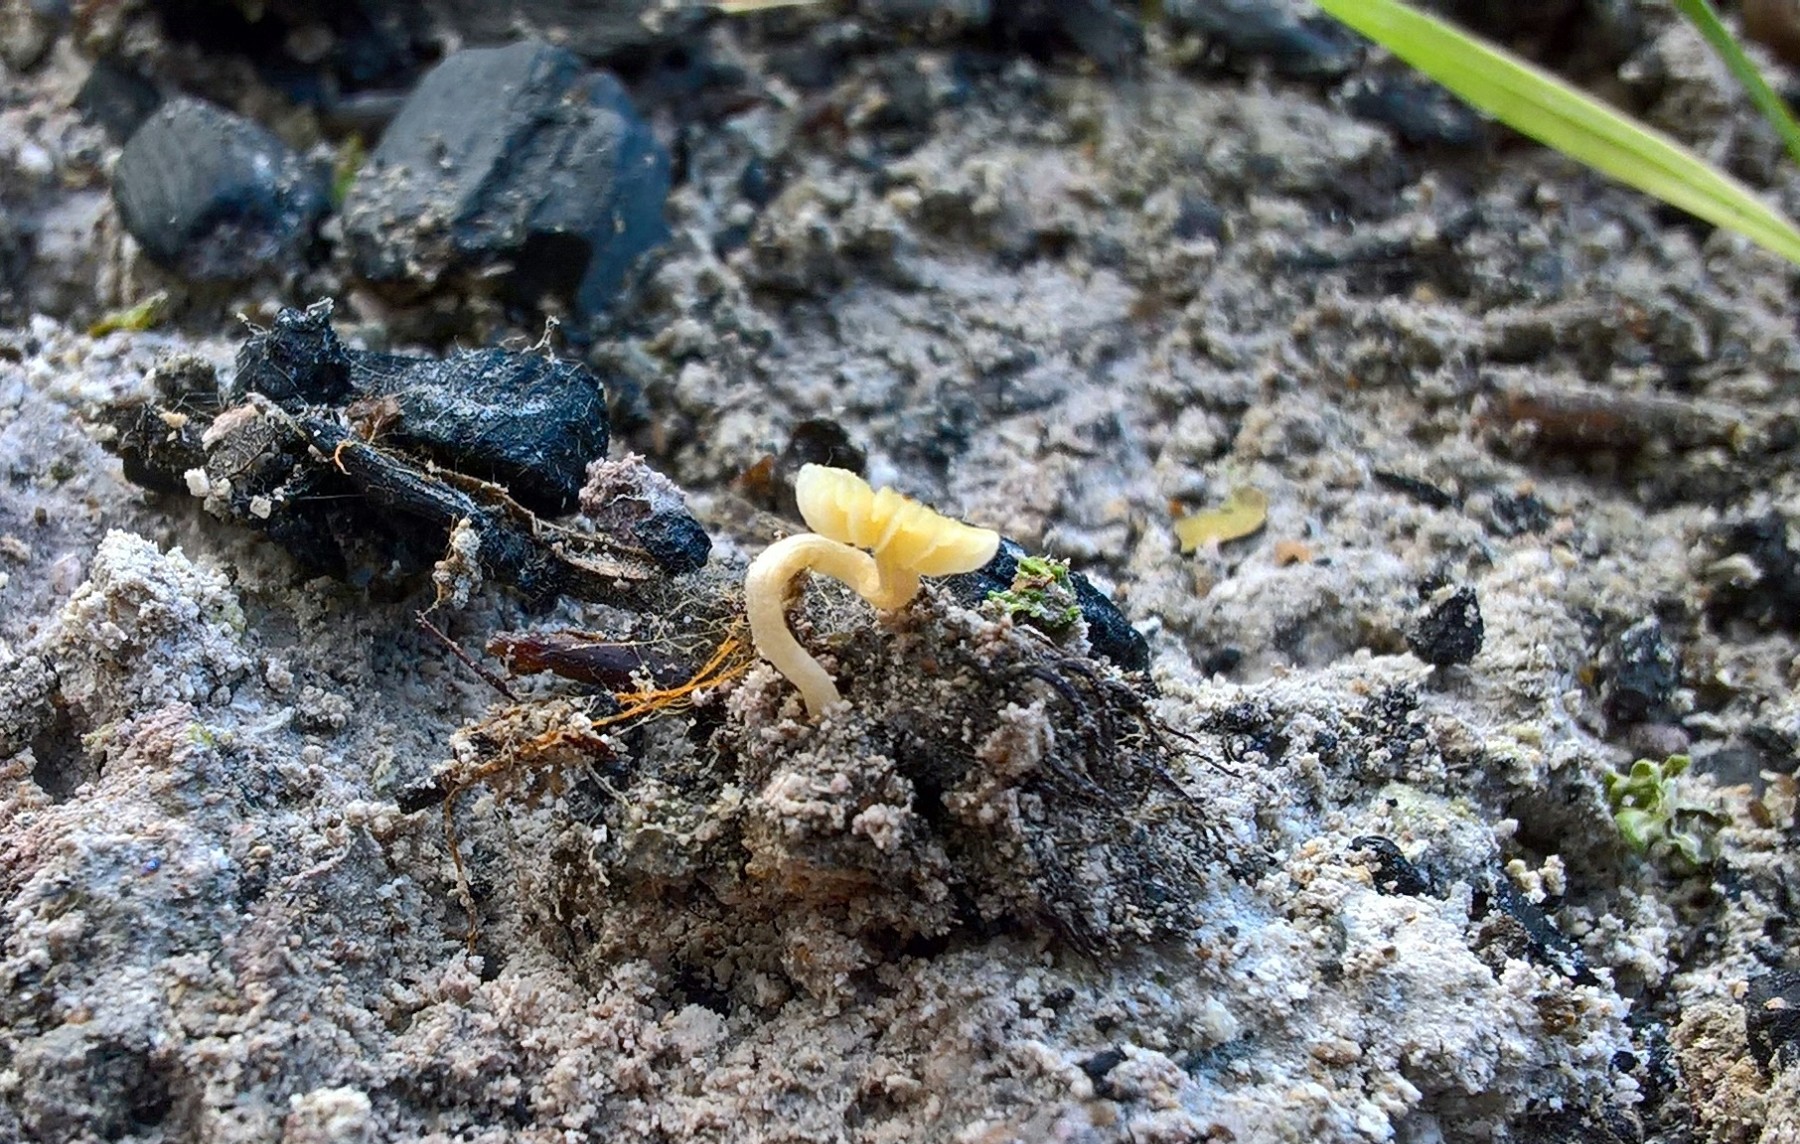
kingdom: Fungi
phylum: Basidiomycota
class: Agaricomycetes
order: Agaricales
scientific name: Agaricales
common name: champignonordenen
